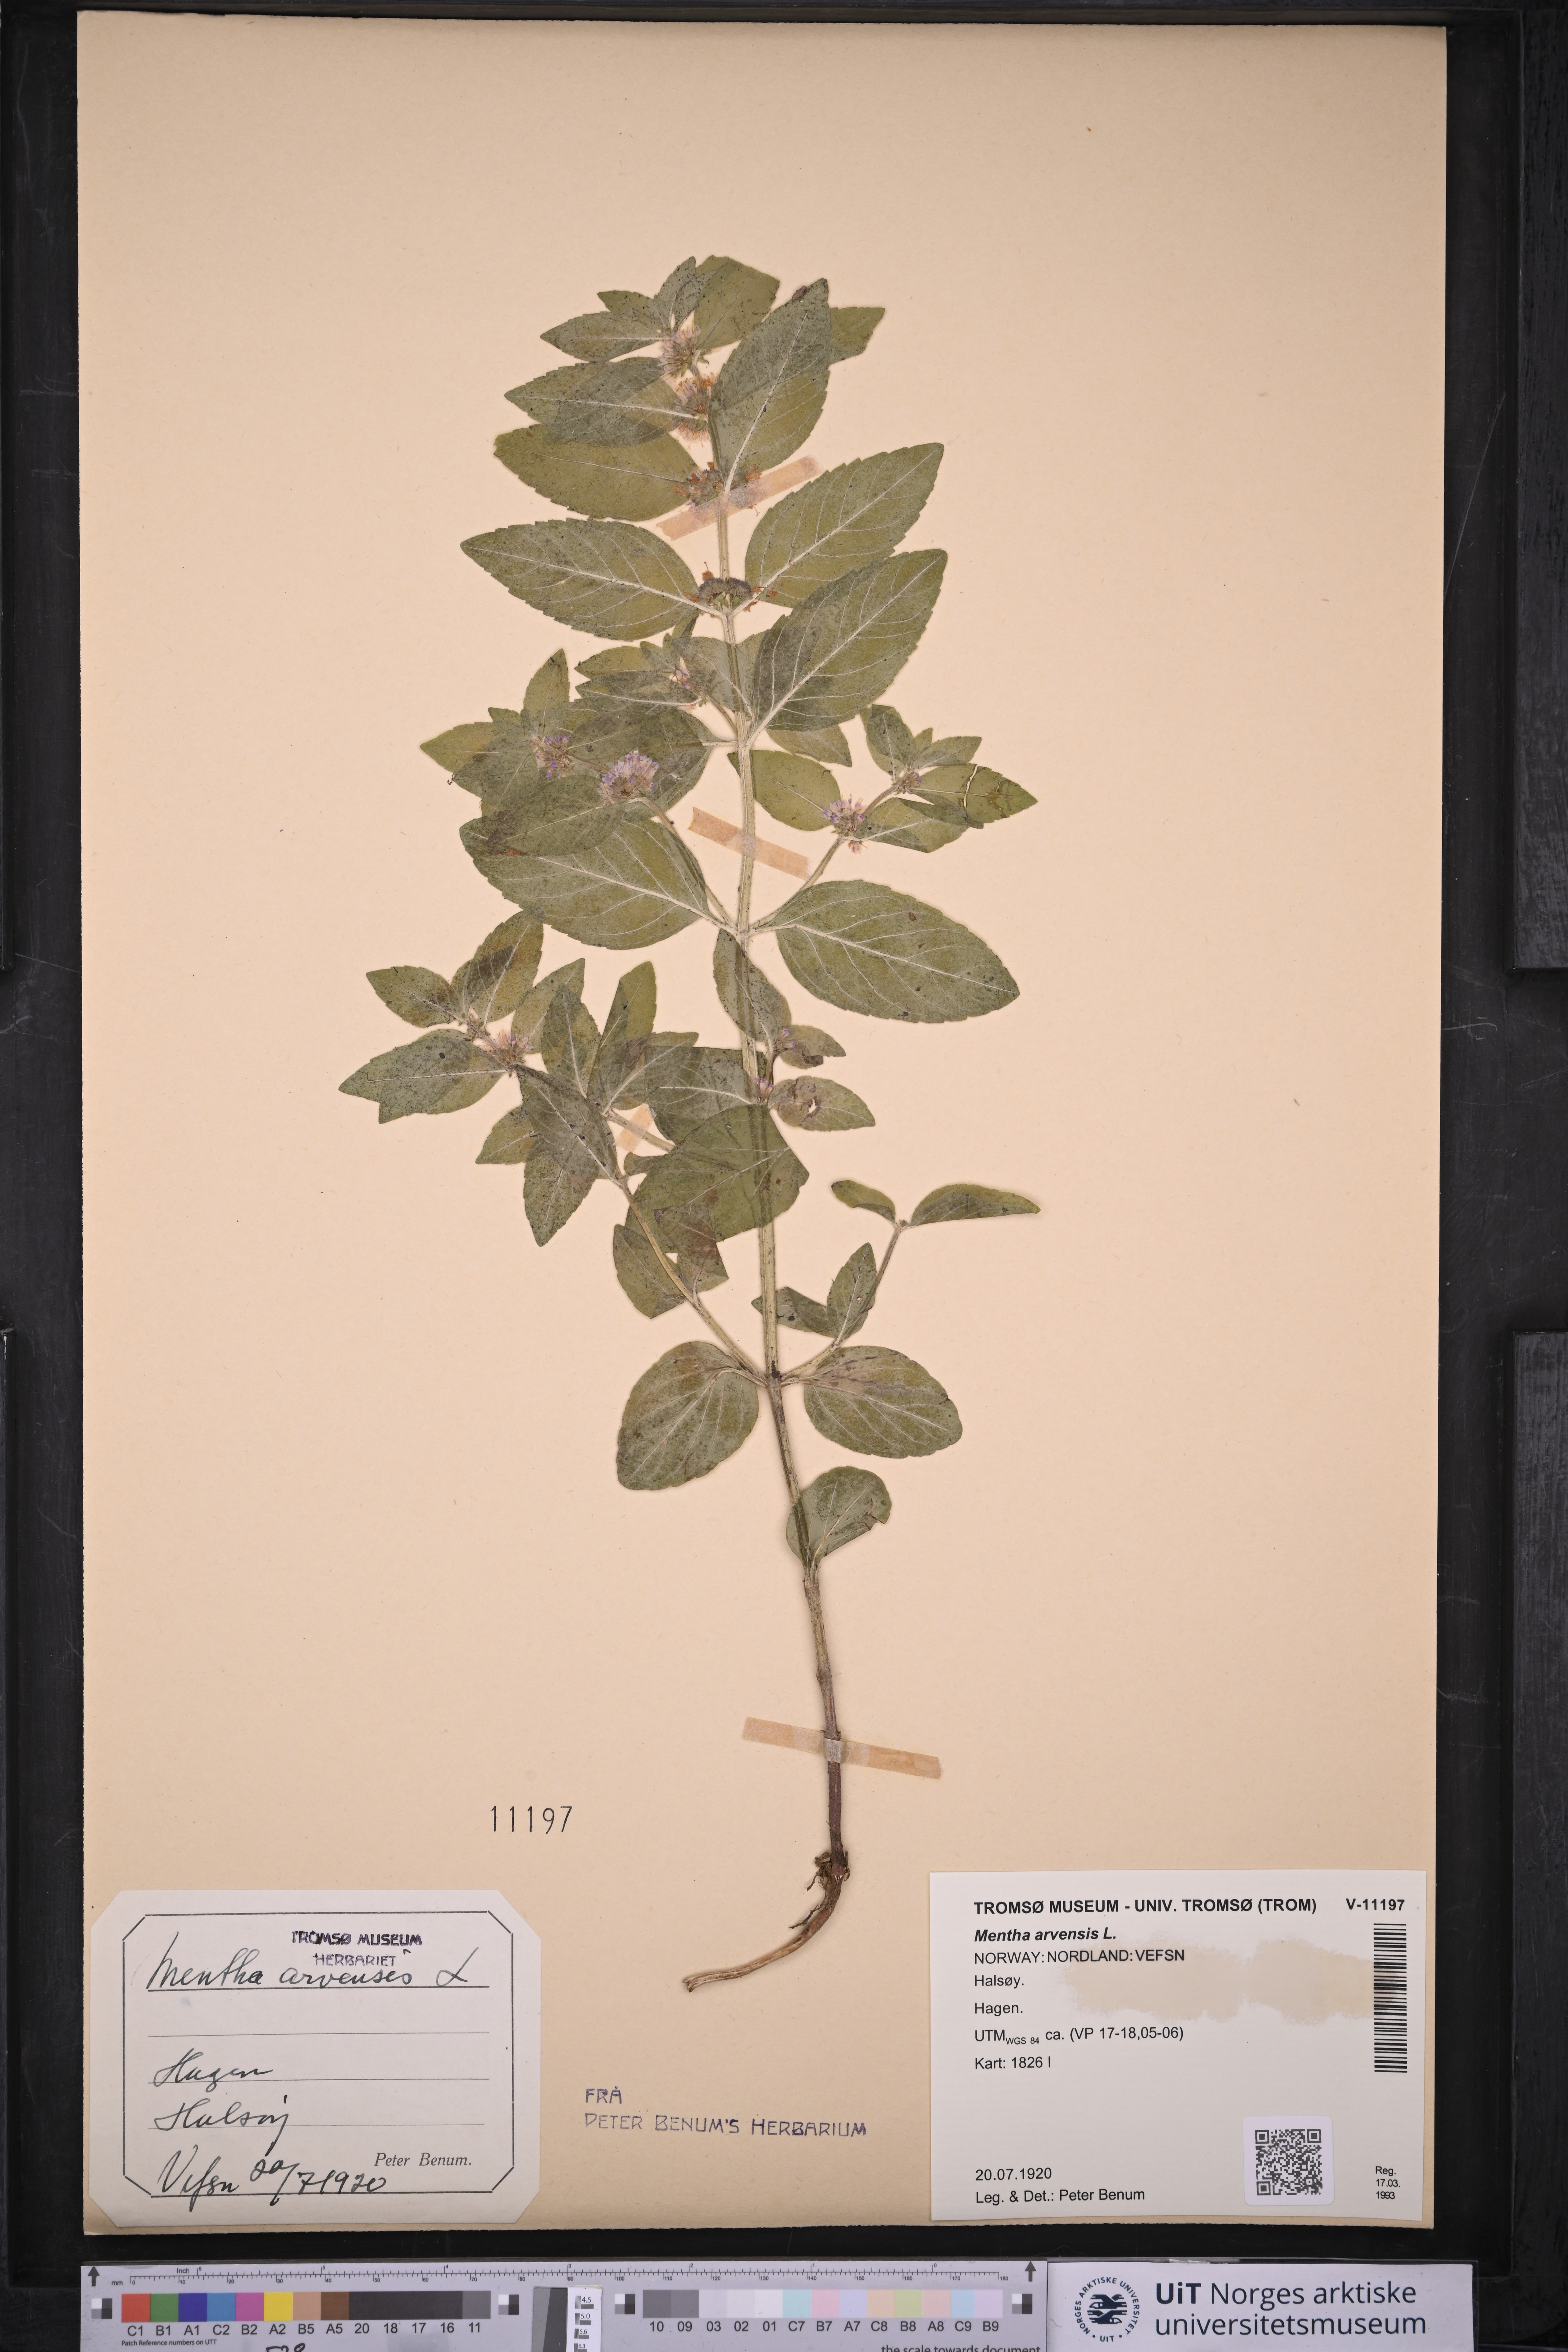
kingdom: Plantae
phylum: Tracheophyta
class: Magnoliopsida
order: Lamiales
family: Lamiaceae
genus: Mentha
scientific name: Mentha arvensis
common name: Corn mint
